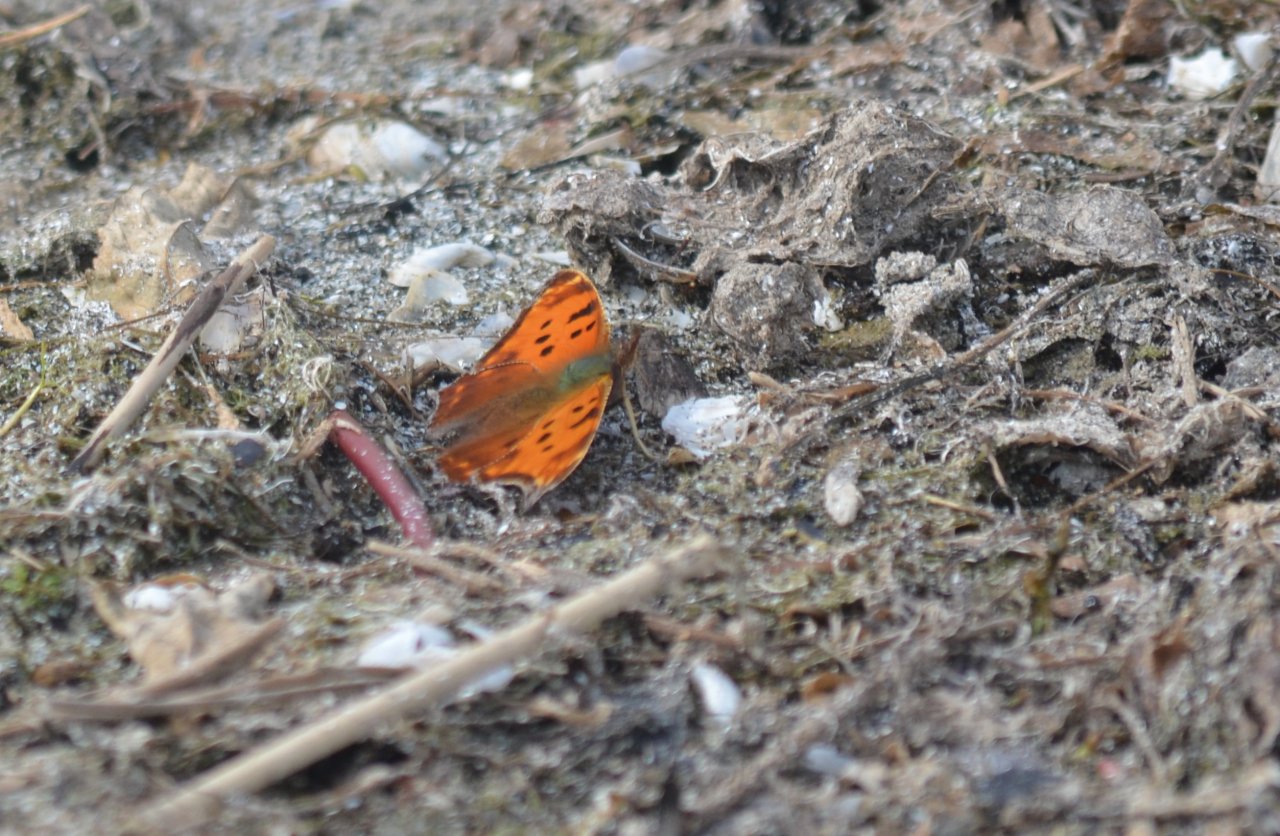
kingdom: Animalia
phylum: Arthropoda
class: Insecta
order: Lepidoptera
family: Nymphalidae
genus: Polygonia
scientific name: Polygonia comma
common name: Eastern Comma
